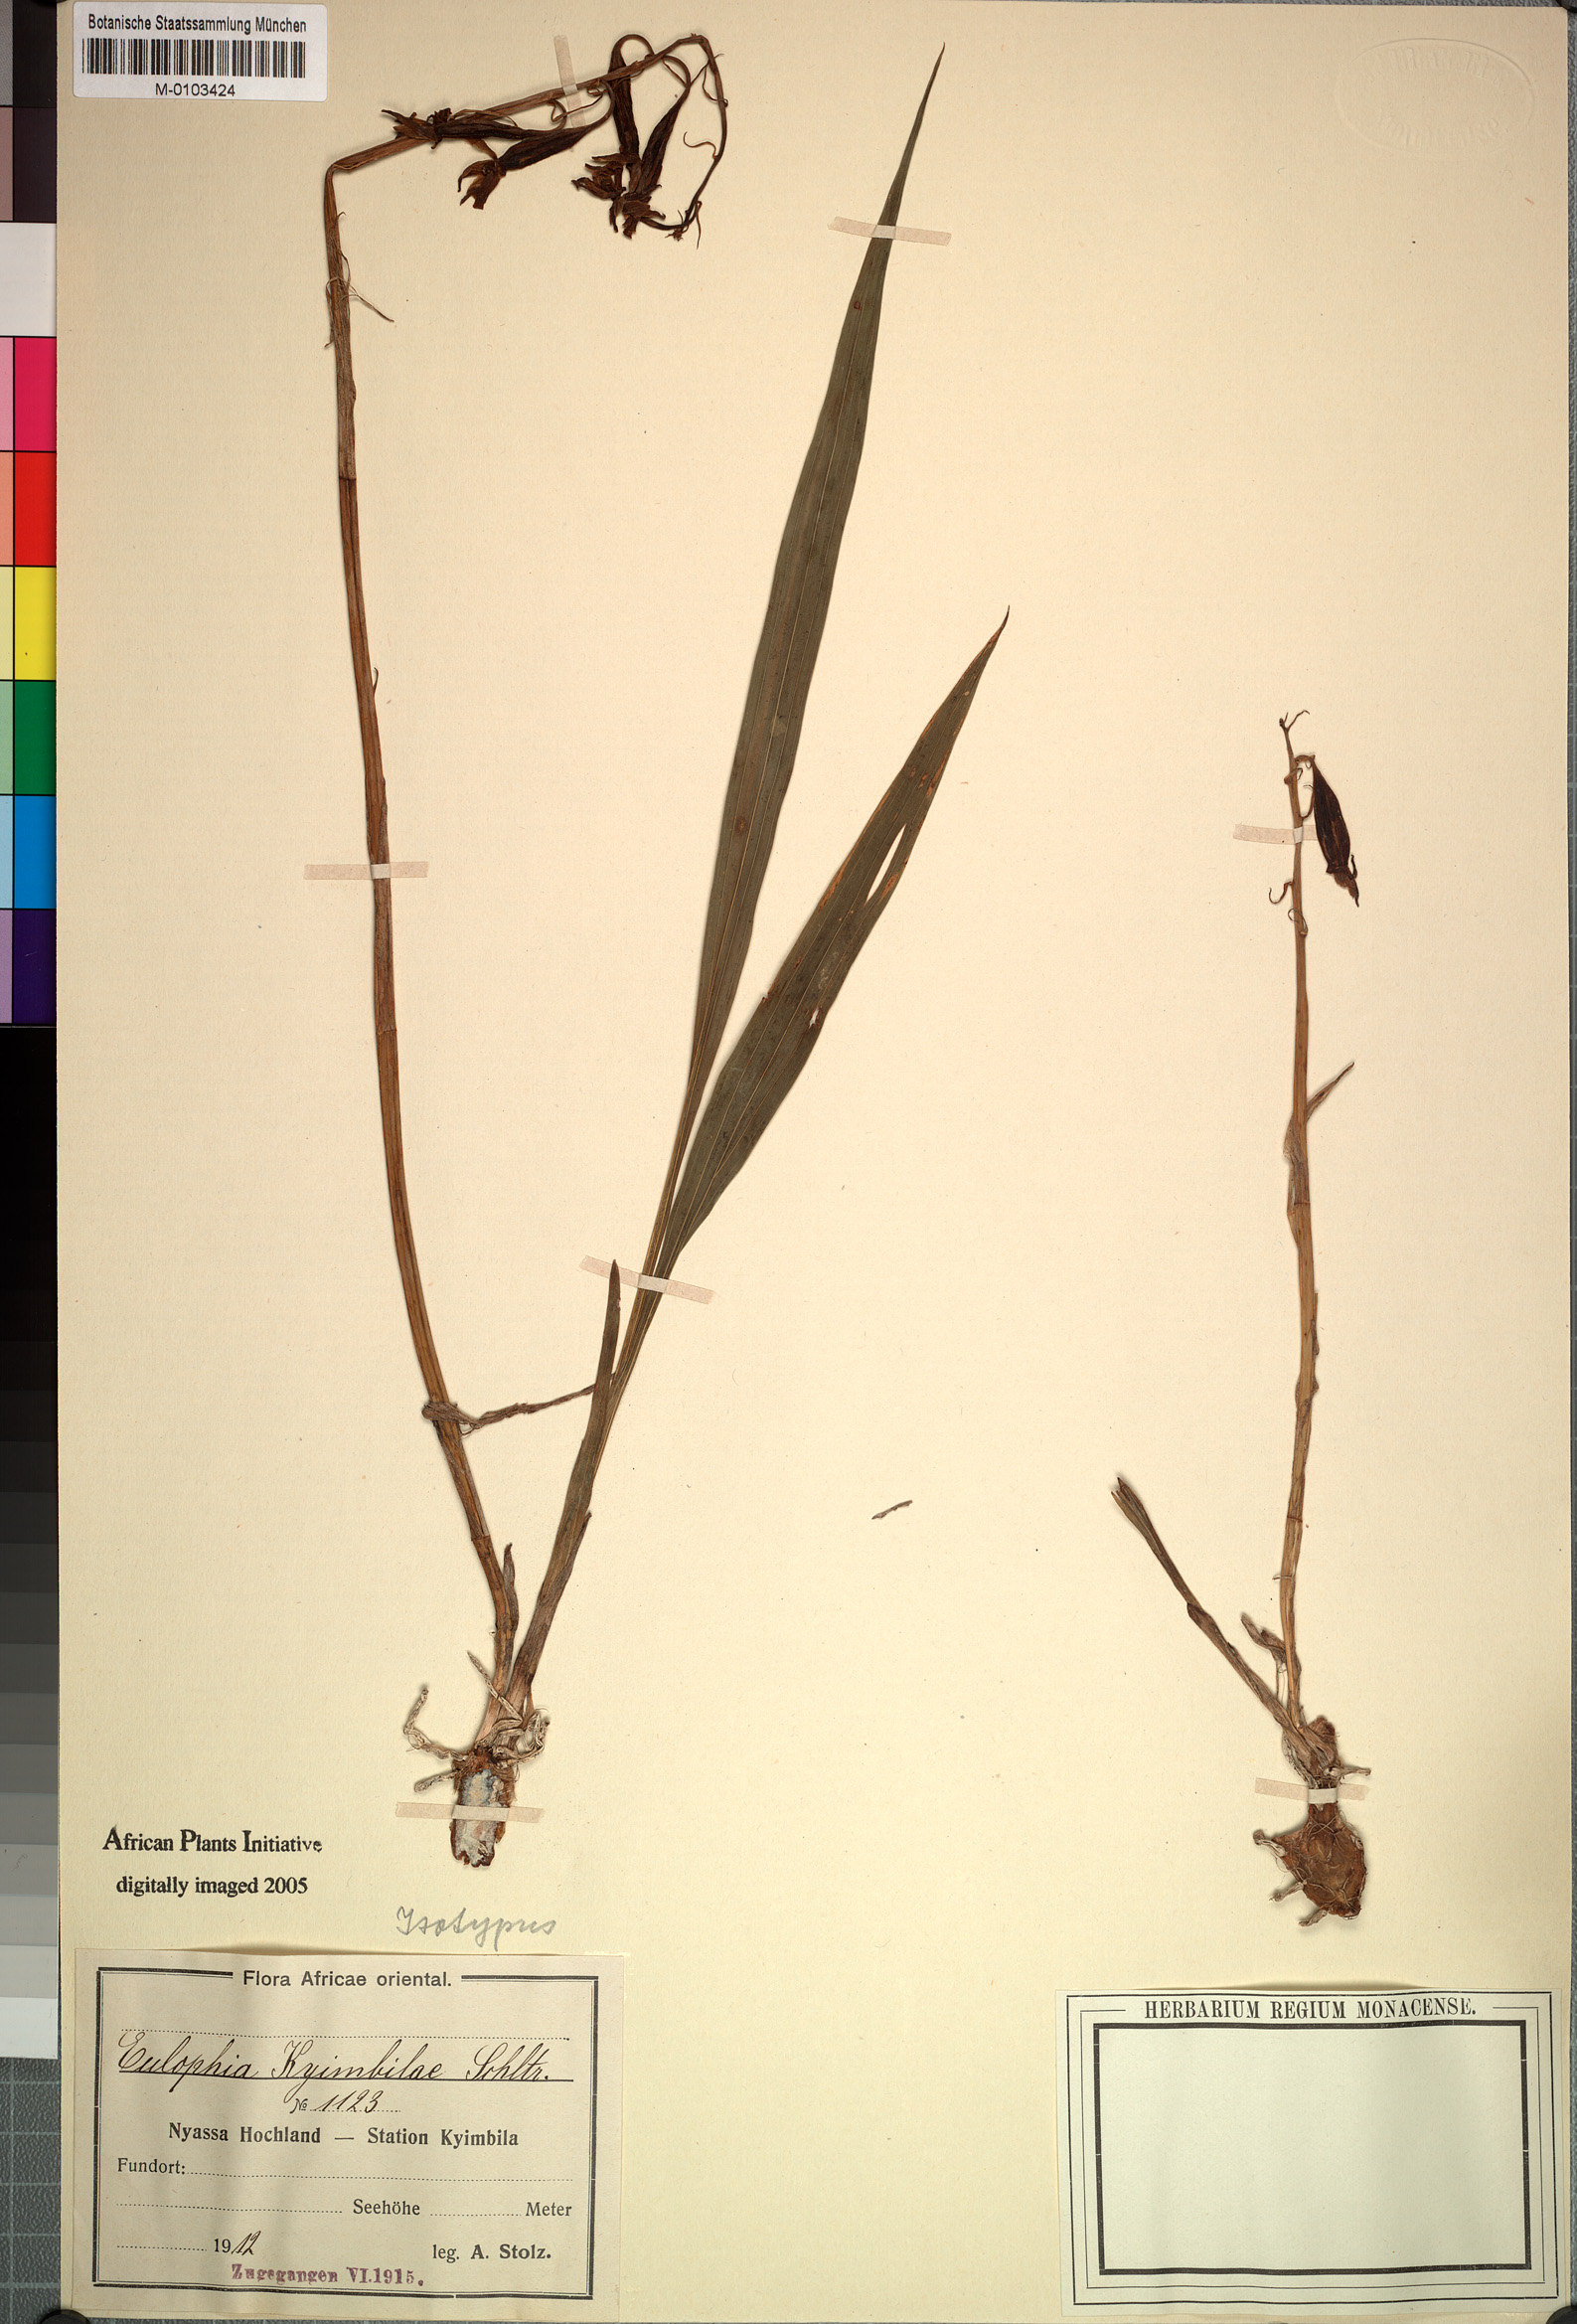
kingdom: Plantae
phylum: Tracheophyta
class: Liliopsida
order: Asparagales
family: Orchidaceae
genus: Eulophia
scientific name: Eulophia kyimbilae
